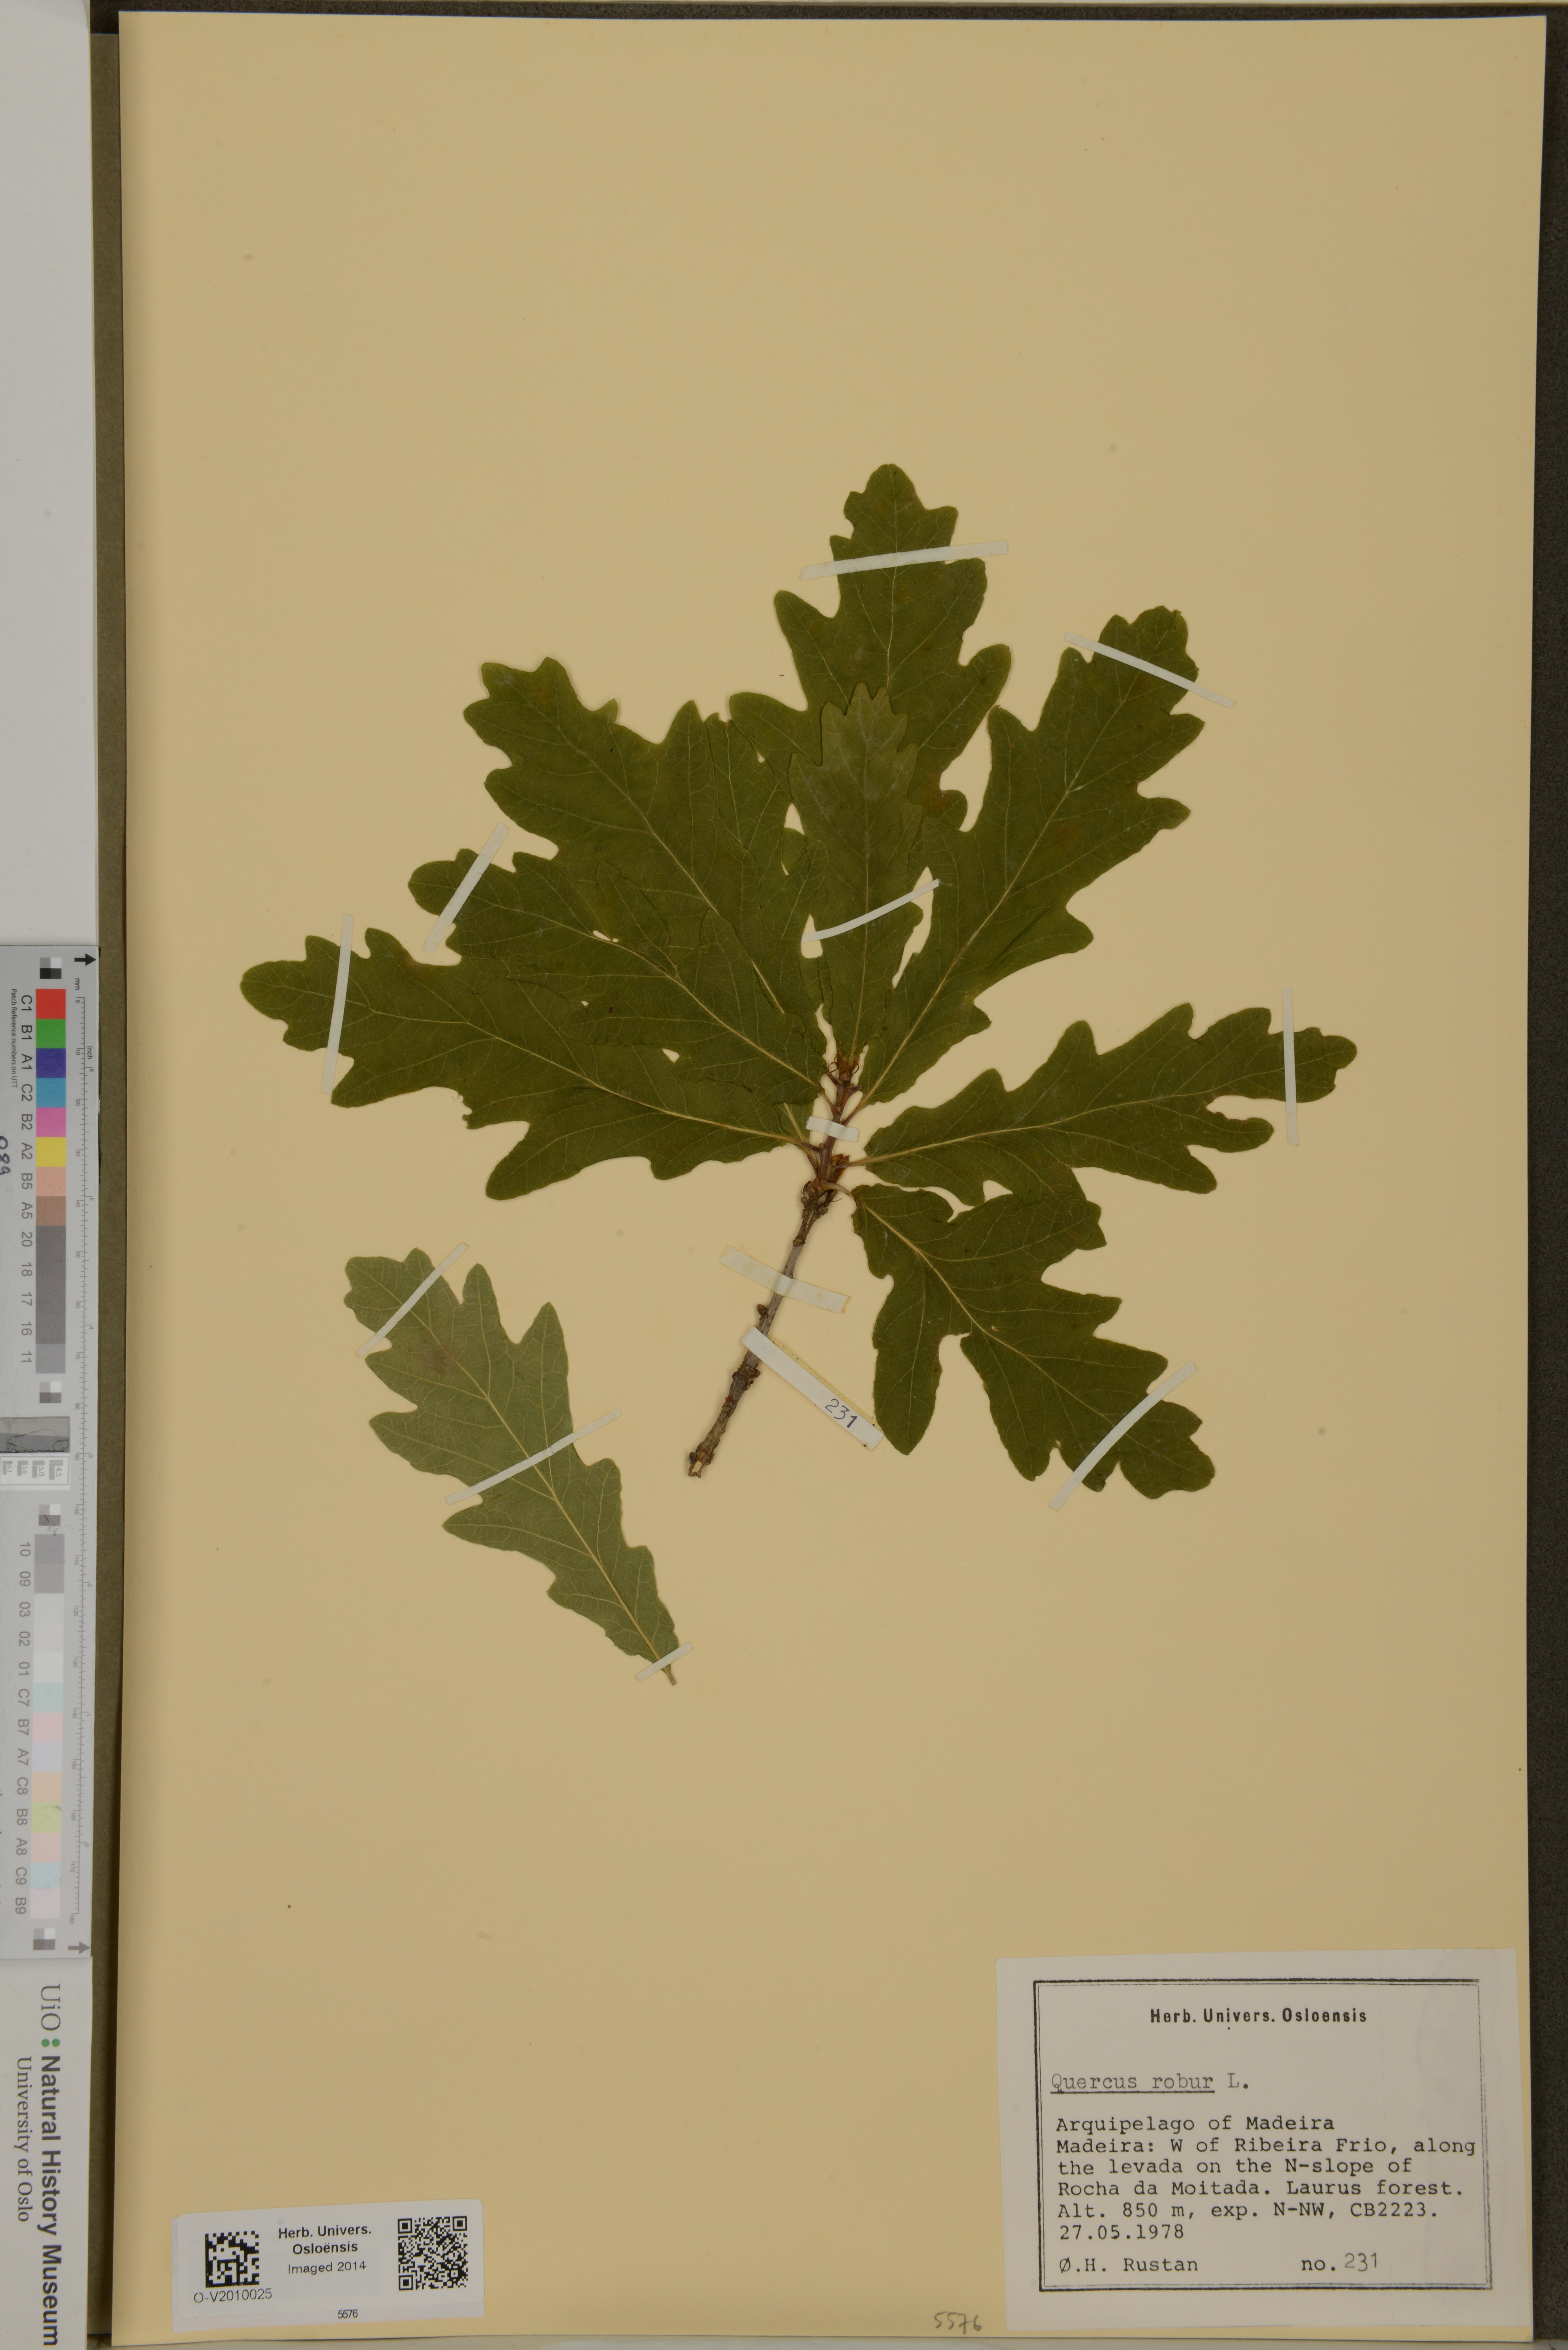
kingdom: Plantae
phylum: Tracheophyta
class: Magnoliopsida
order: Fagales
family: Fagaceae
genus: Quercus
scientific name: Quercus robur
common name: Pedunculate oak
